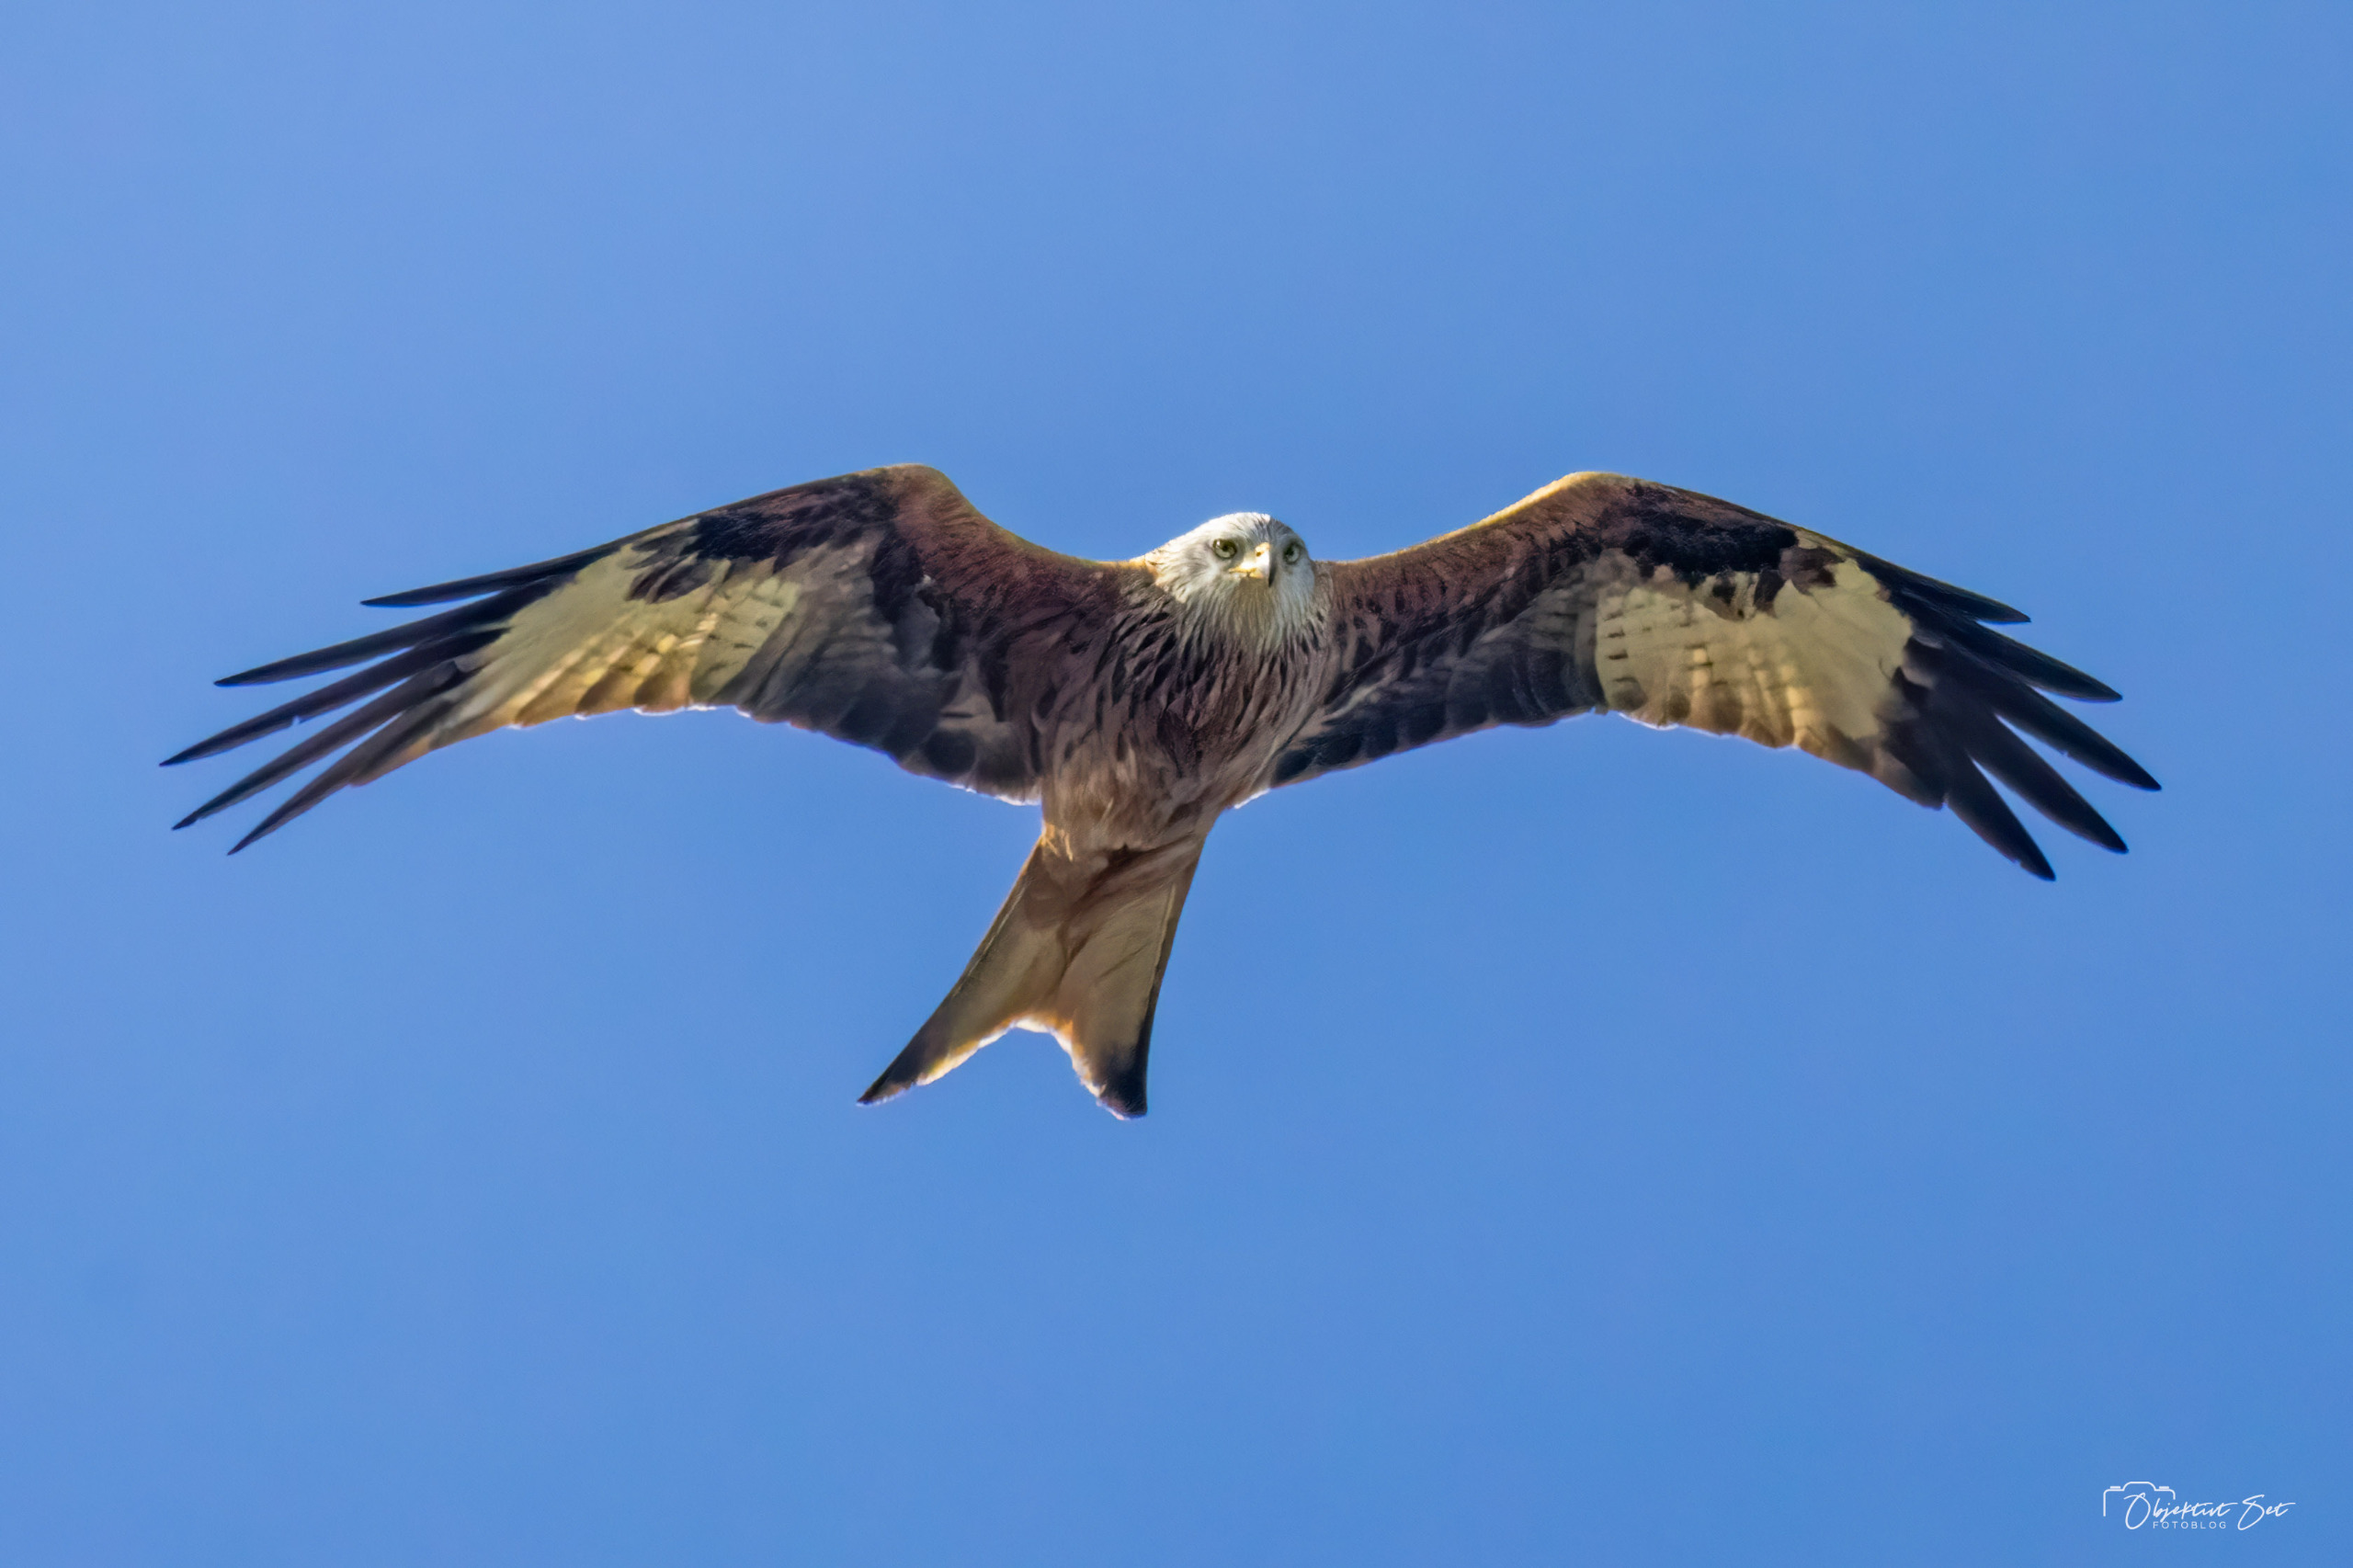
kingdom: Animalia
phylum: Chordata
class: Aves
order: Accipitriformes
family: Accipitridae
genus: Milvus
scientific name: Milvus milvus
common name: Rød glente
